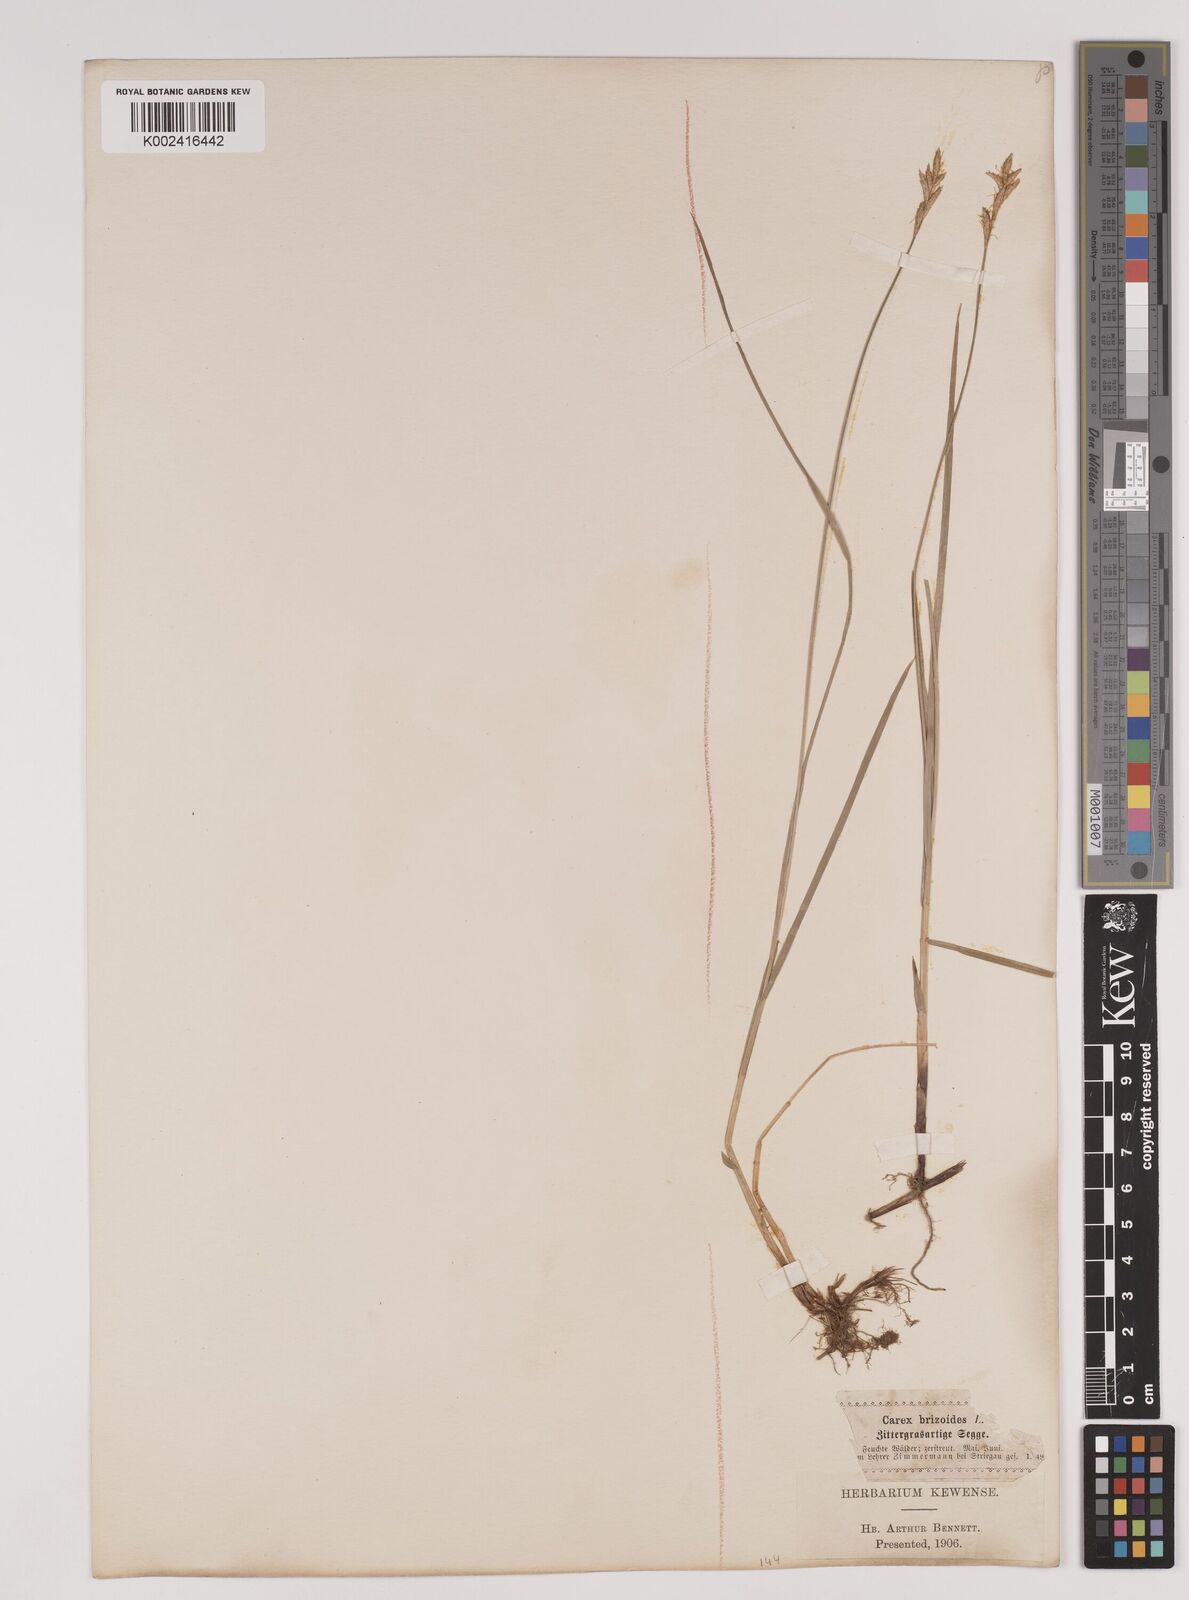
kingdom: Plantae
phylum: Tracheophyta
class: Liliopsida
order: Poales
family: Cyperaceae
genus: Carex
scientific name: Carex brizoides
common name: Quaking-grass sedge
